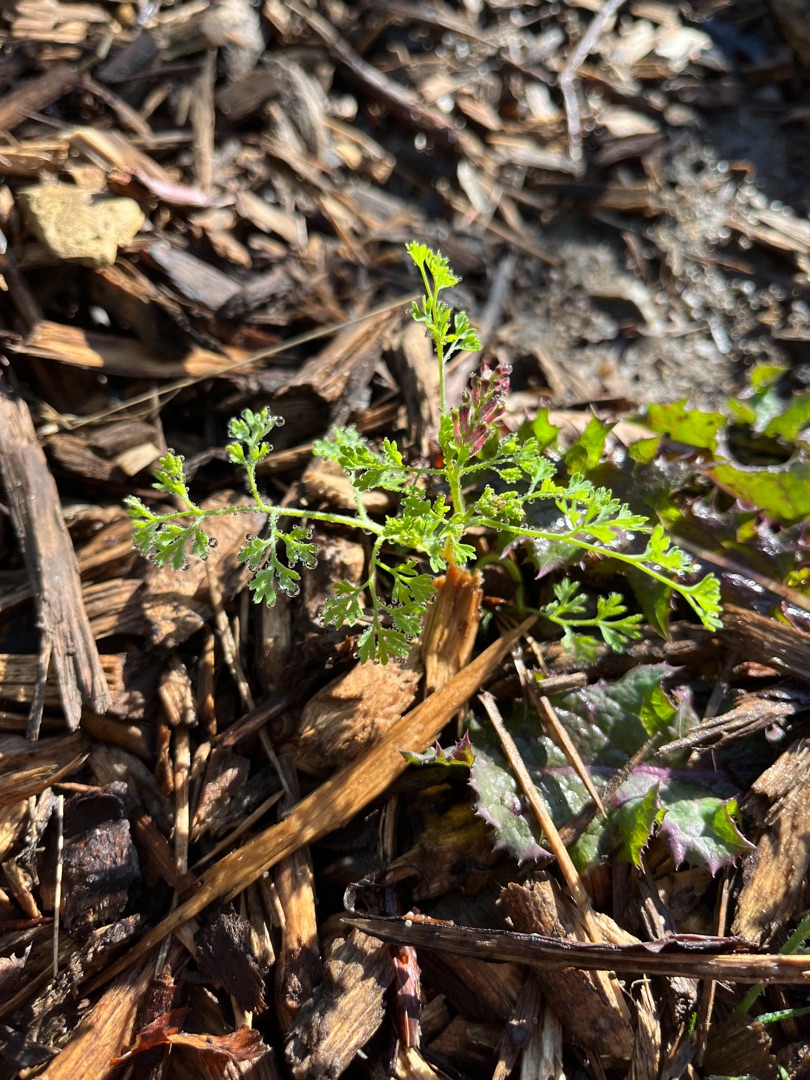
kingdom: Plantae
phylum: Tracheophyta
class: Magnoliopsida
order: Ranunculales
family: Papaveraceae
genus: Fumaria
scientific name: Fumaria officinalis
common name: Læge-jordrøg
